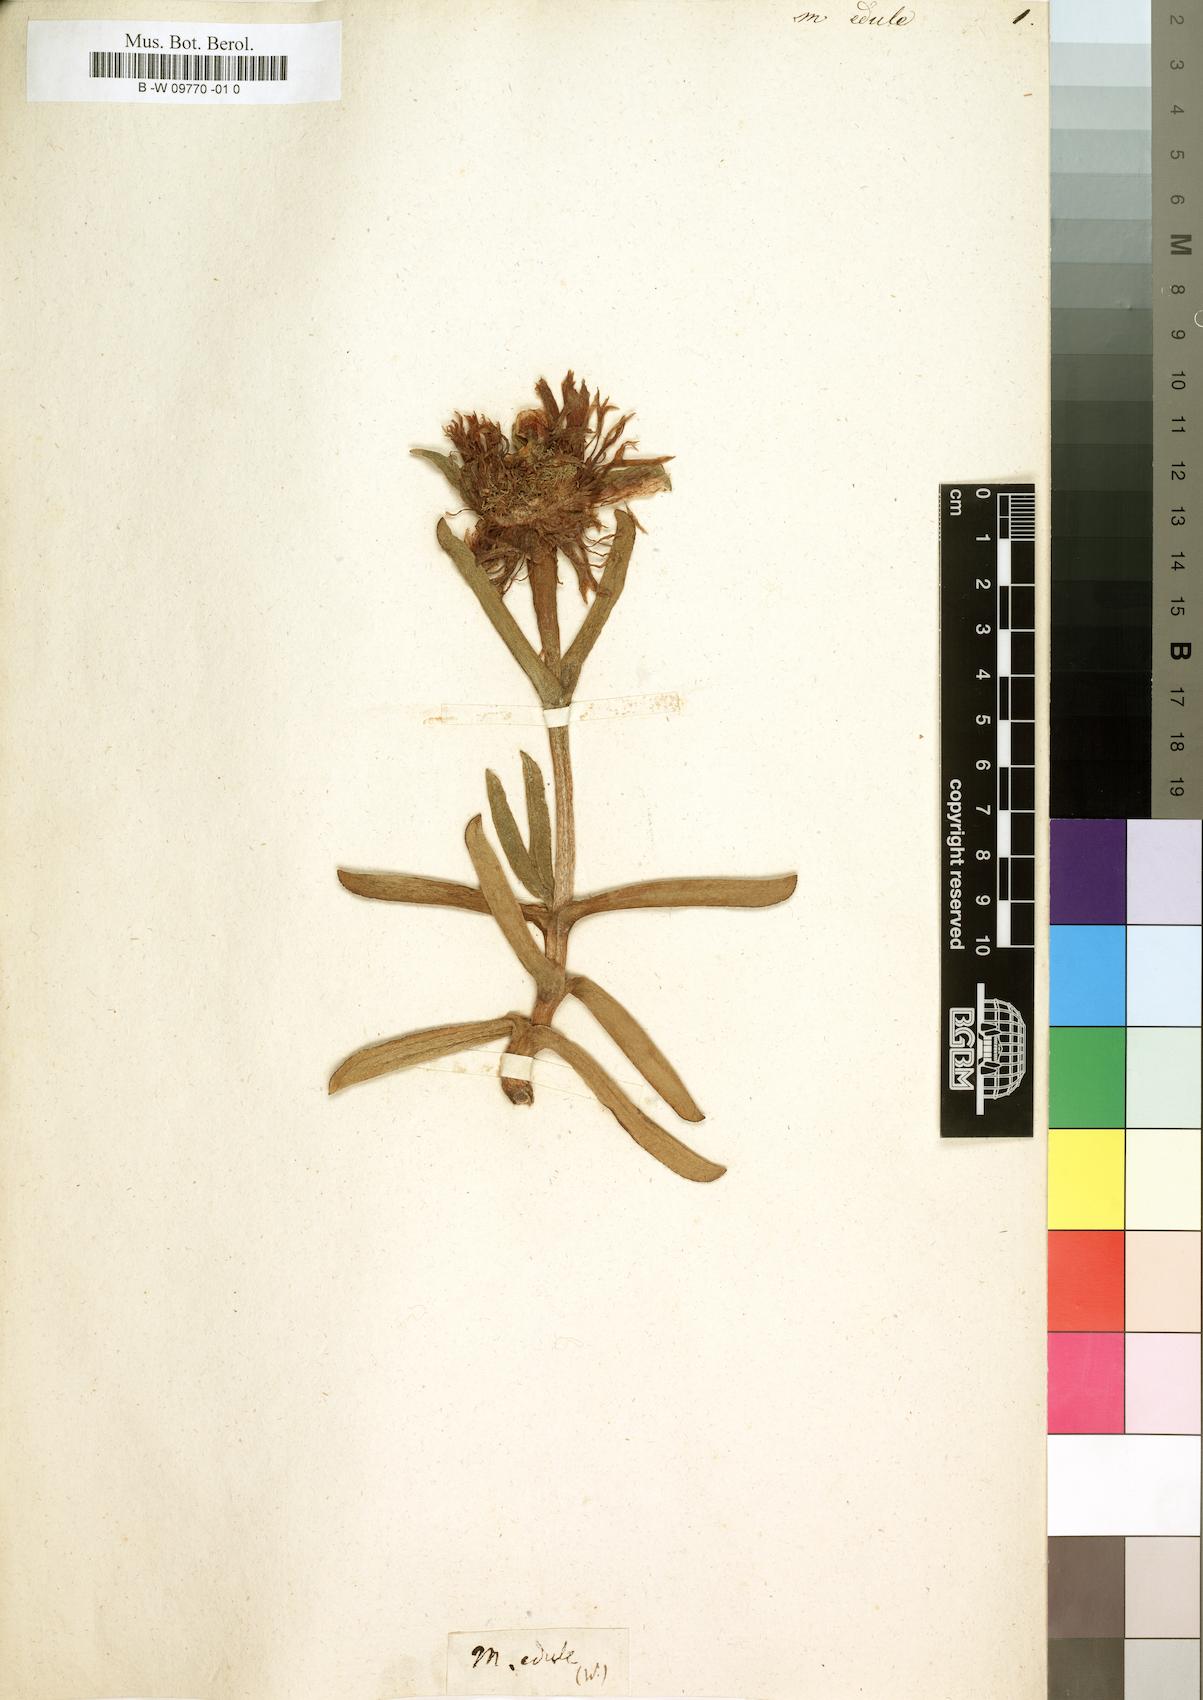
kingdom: Plantae
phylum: Tracheophyta
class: Magnoliopsida
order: Caryophyllales
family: Aizoaceae
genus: Carpobrotus
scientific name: Carpobrotus edulis
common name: Hottentot-fig
